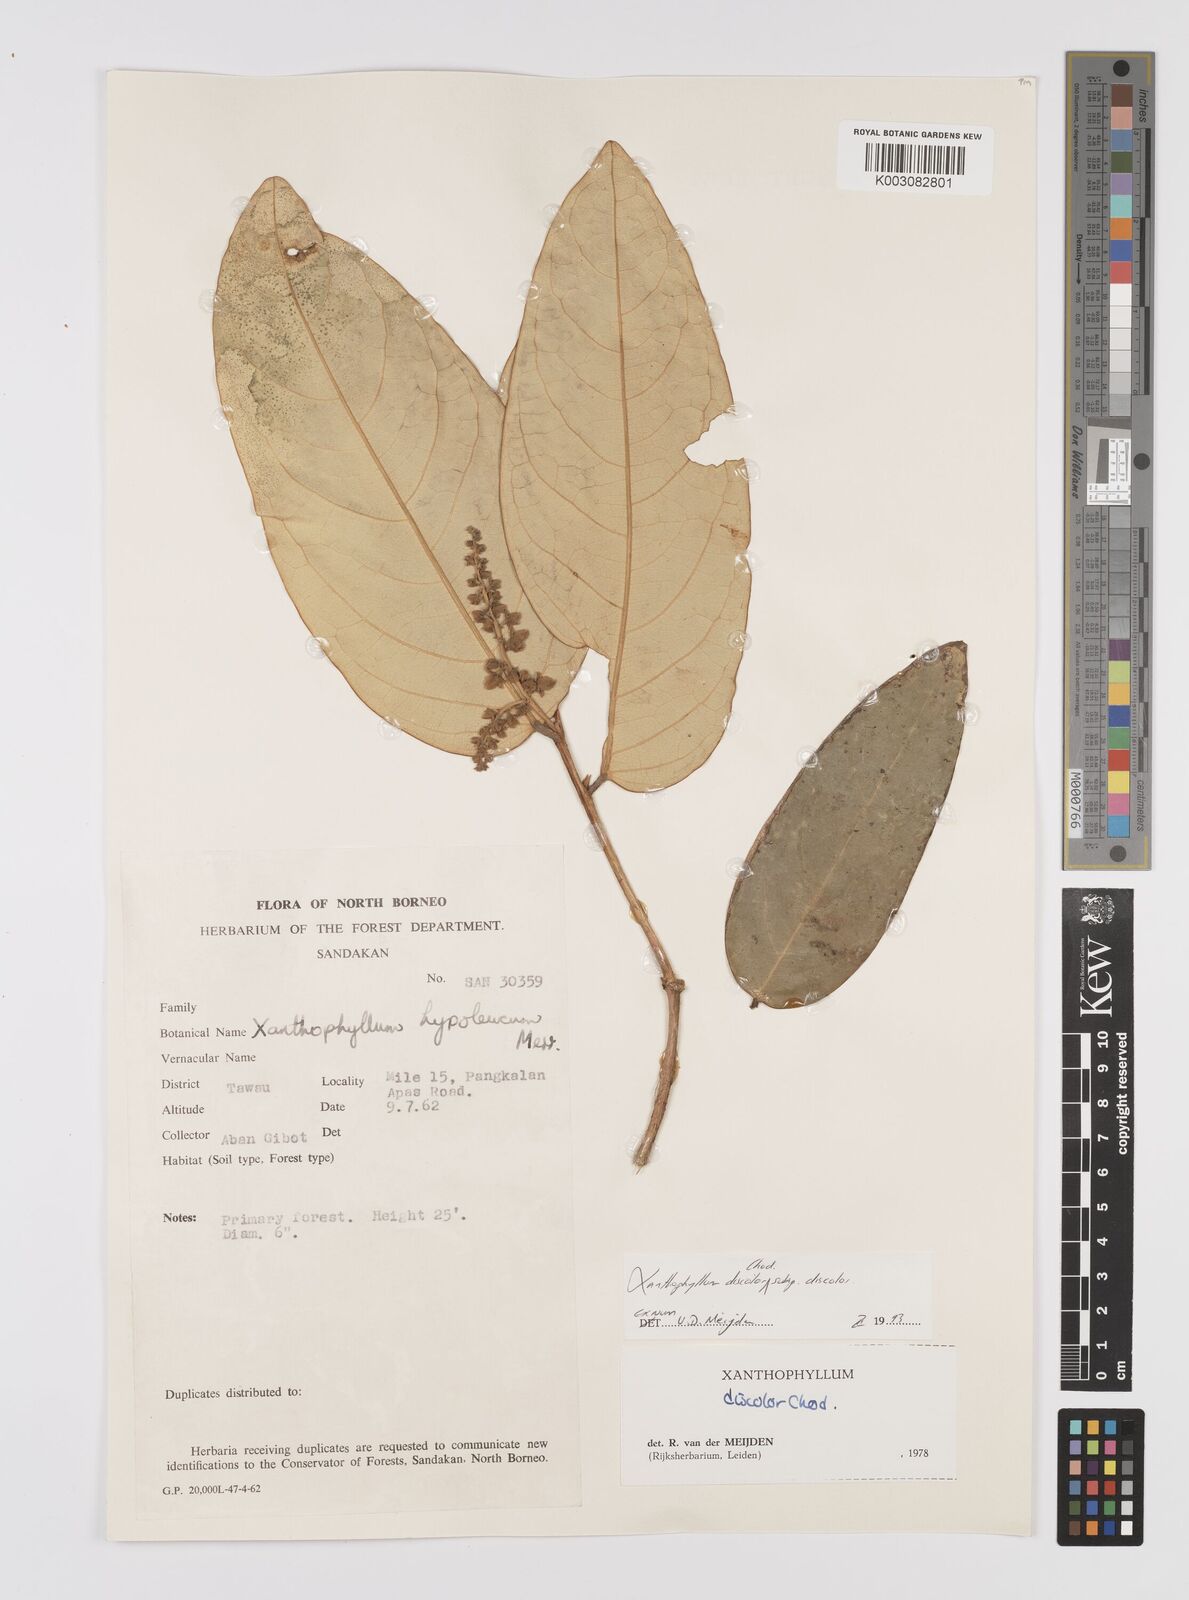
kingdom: Plantae
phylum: Tracheophyta
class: Magnoliopsida
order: Fabales
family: Polygalaceae
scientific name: Polygalaceae
